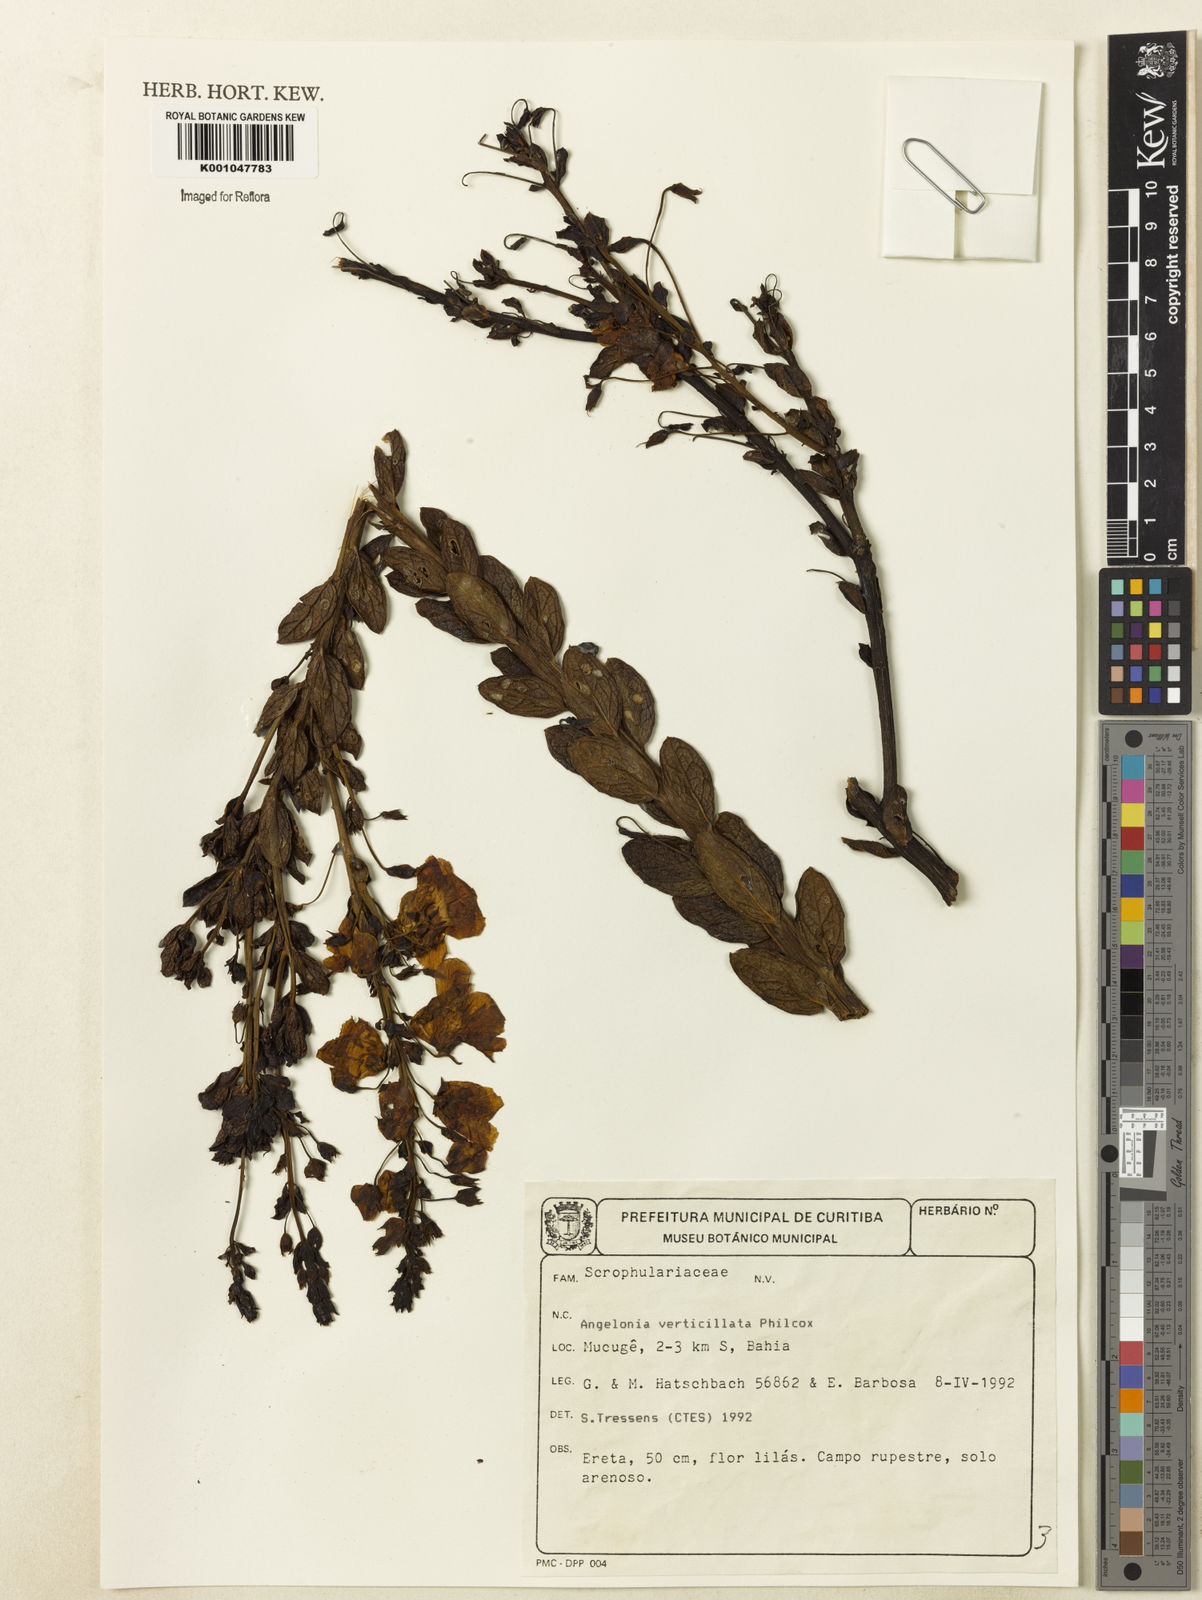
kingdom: Plantae
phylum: Tracheophyta
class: Magnoliopsida
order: Lamiales
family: Plantaginaceae
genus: Angelonia
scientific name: Angelonia verticillata
